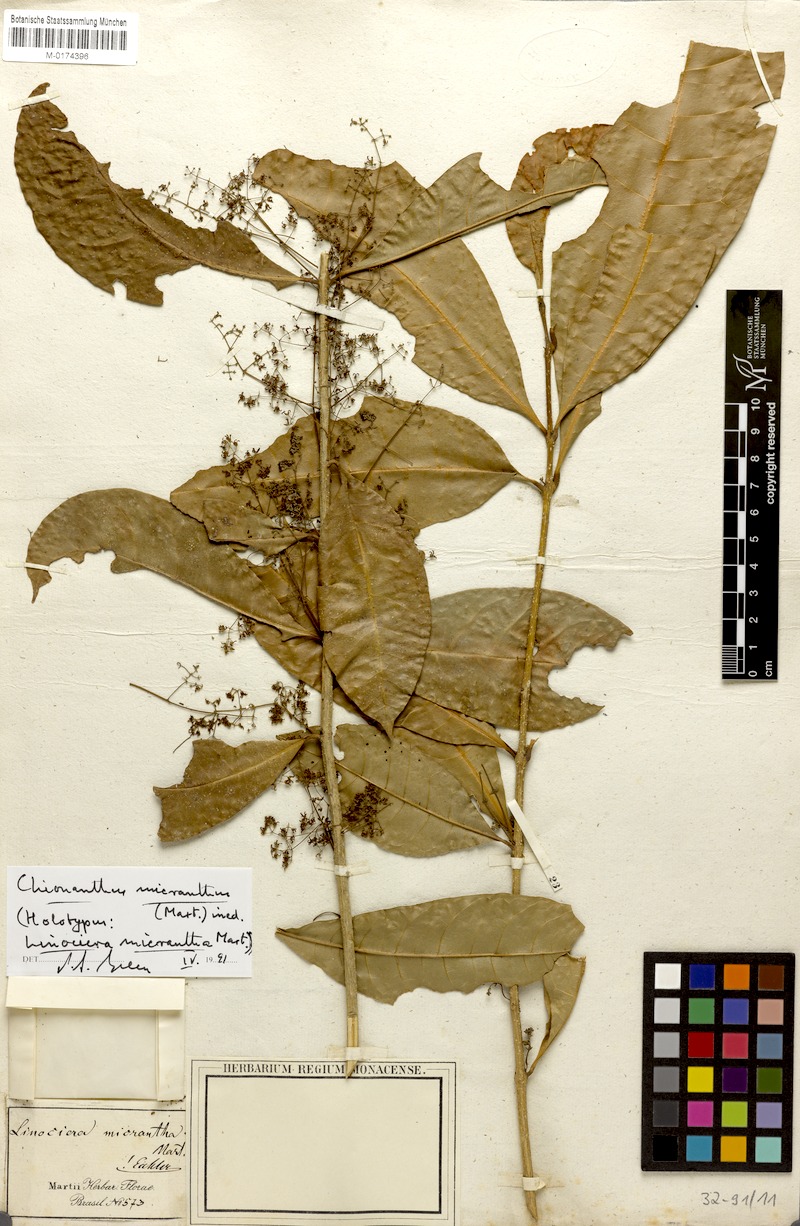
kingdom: Plantae
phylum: Tracheophyta
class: Magnoliopsida
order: Lamiales
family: Oleaceae
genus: Chionanthus
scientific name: Chionanthus micranthus
